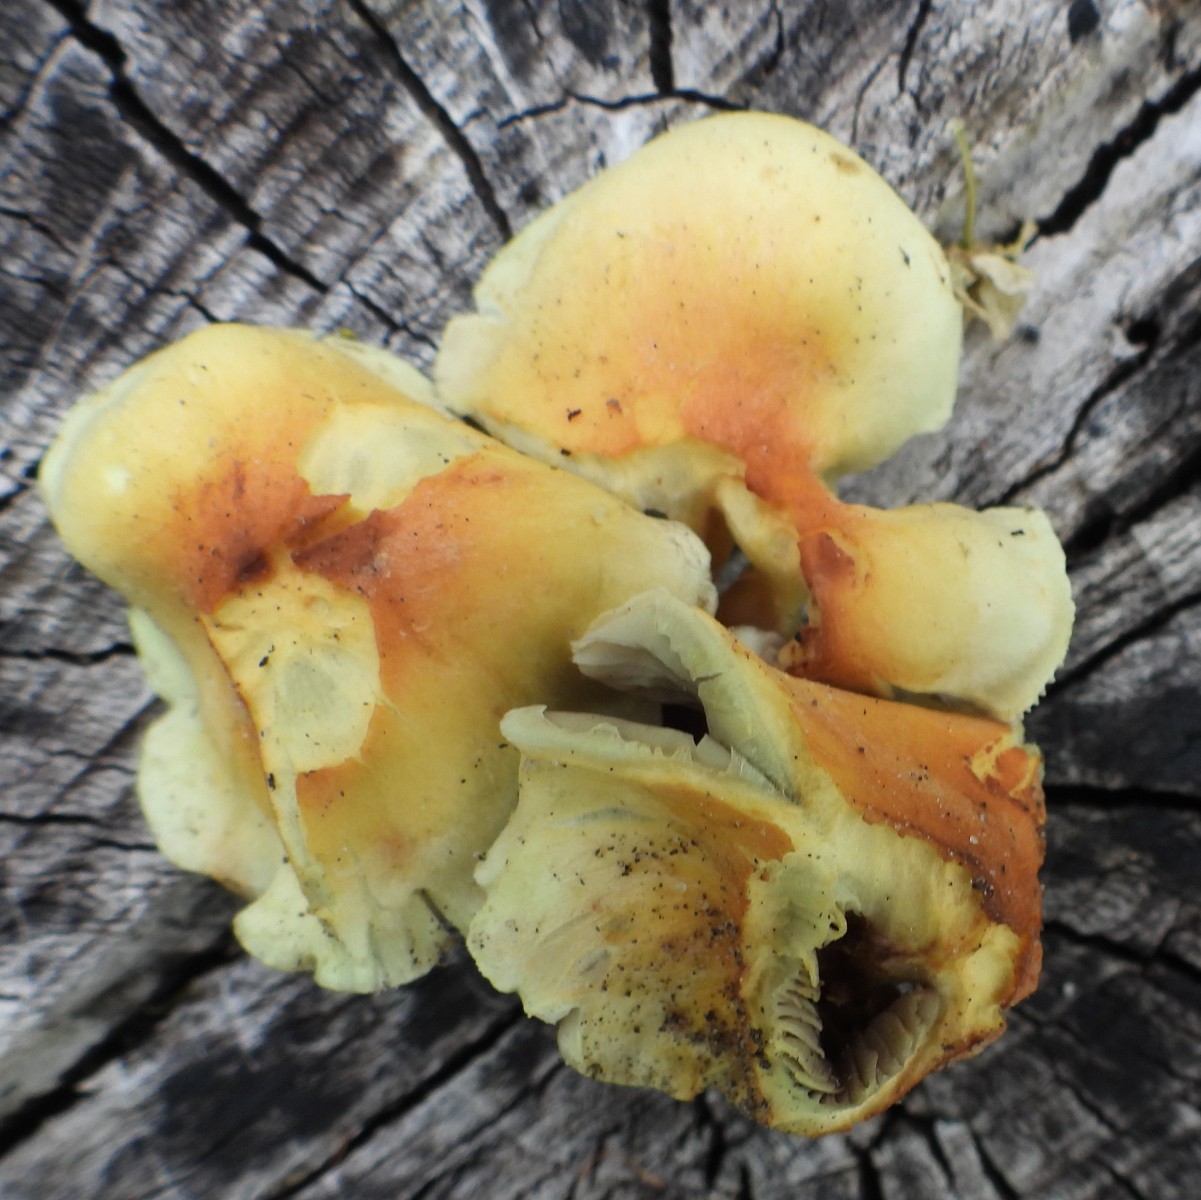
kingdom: Fungi
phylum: Basidiomycota
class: Agaricomycetes
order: Agaricales
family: Strophariaceae
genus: Hypholoma
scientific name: Hypholoma fasciculare
